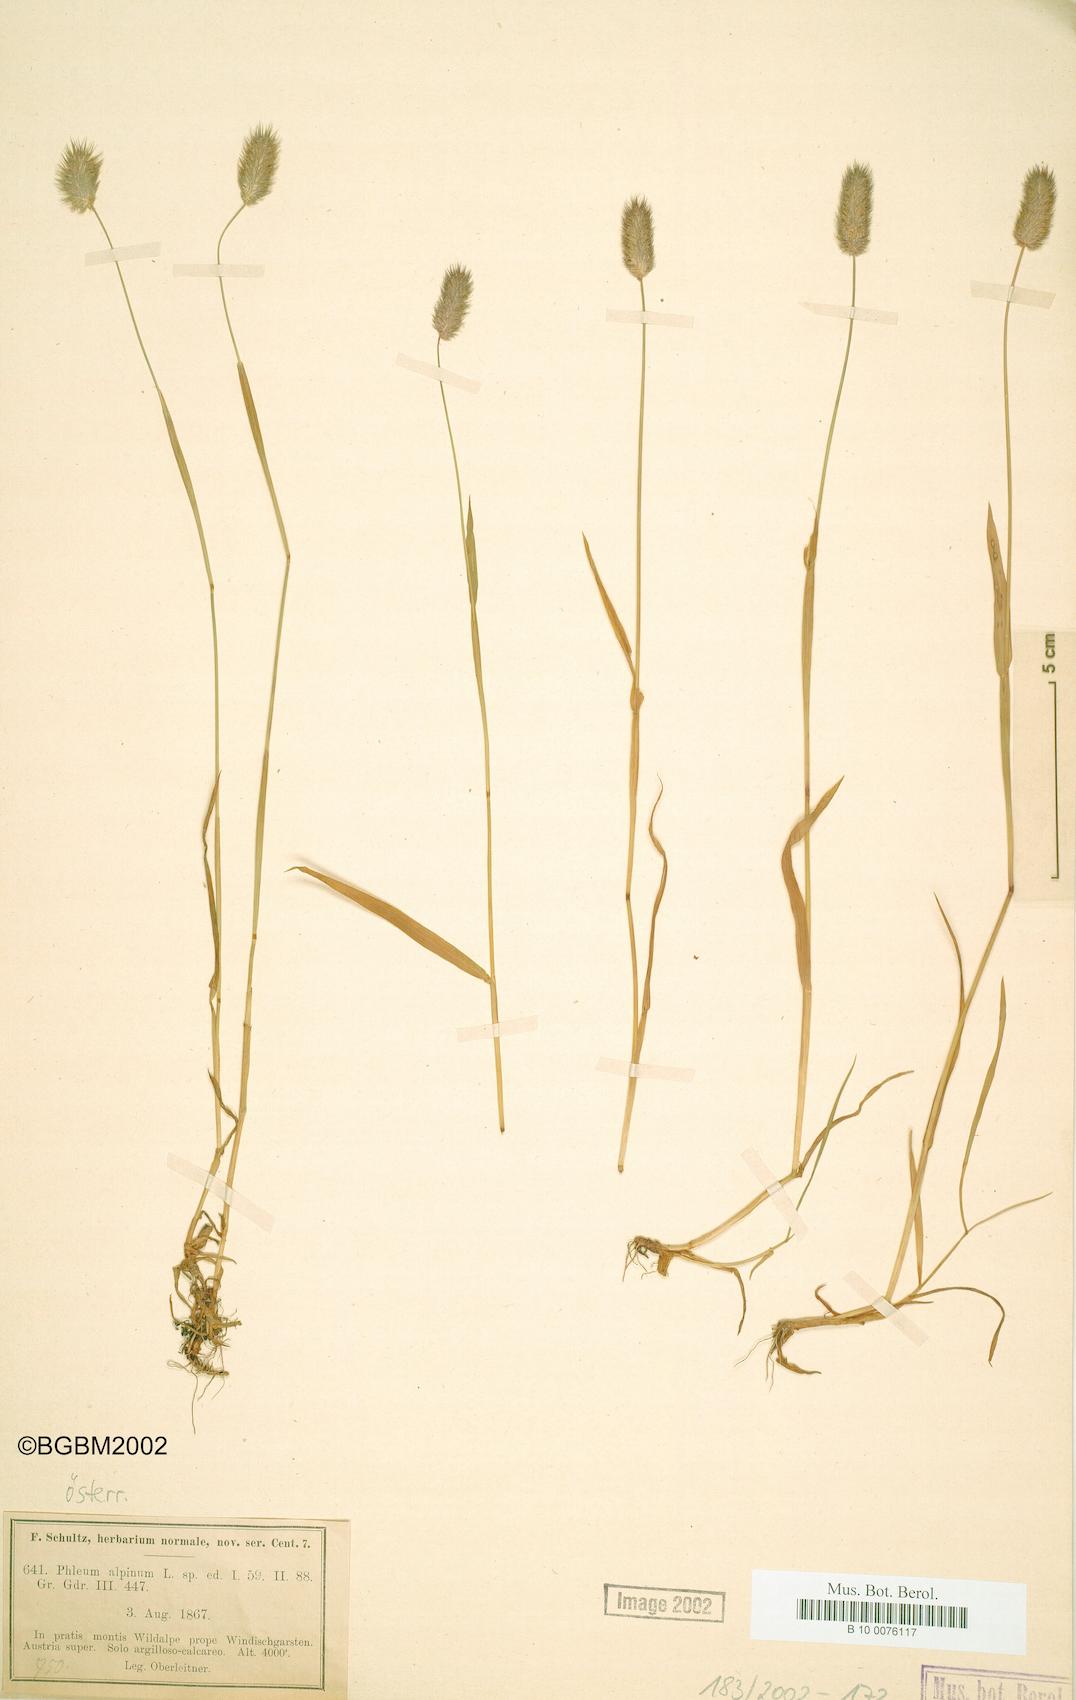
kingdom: Plantae
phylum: Tracheophyta
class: Liliopsida
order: Poales
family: Poaceae
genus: Phleum
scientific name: Phleum alpinum
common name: Alpine cat's-tail
